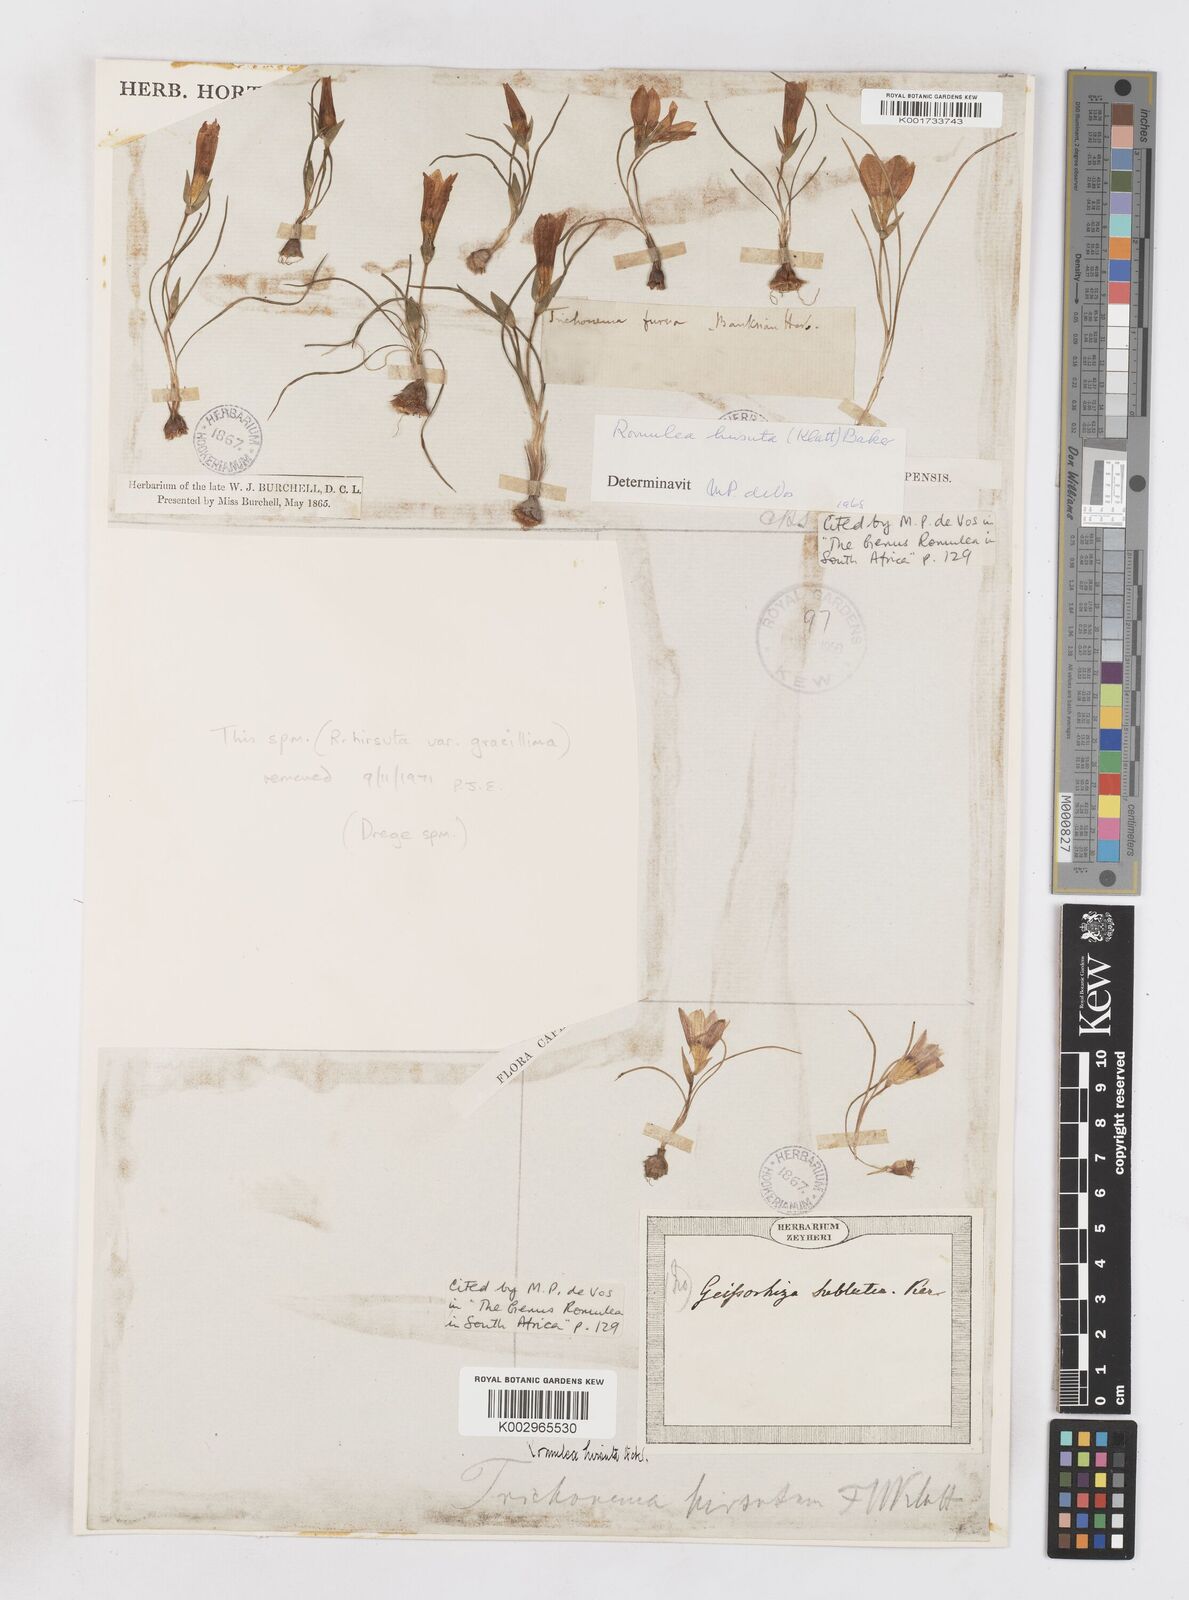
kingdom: Plantae
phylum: Tracheophyta
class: Liliopsida
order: Asparagales
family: Iridaceae
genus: Romulea
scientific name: Romulea hirsuta
